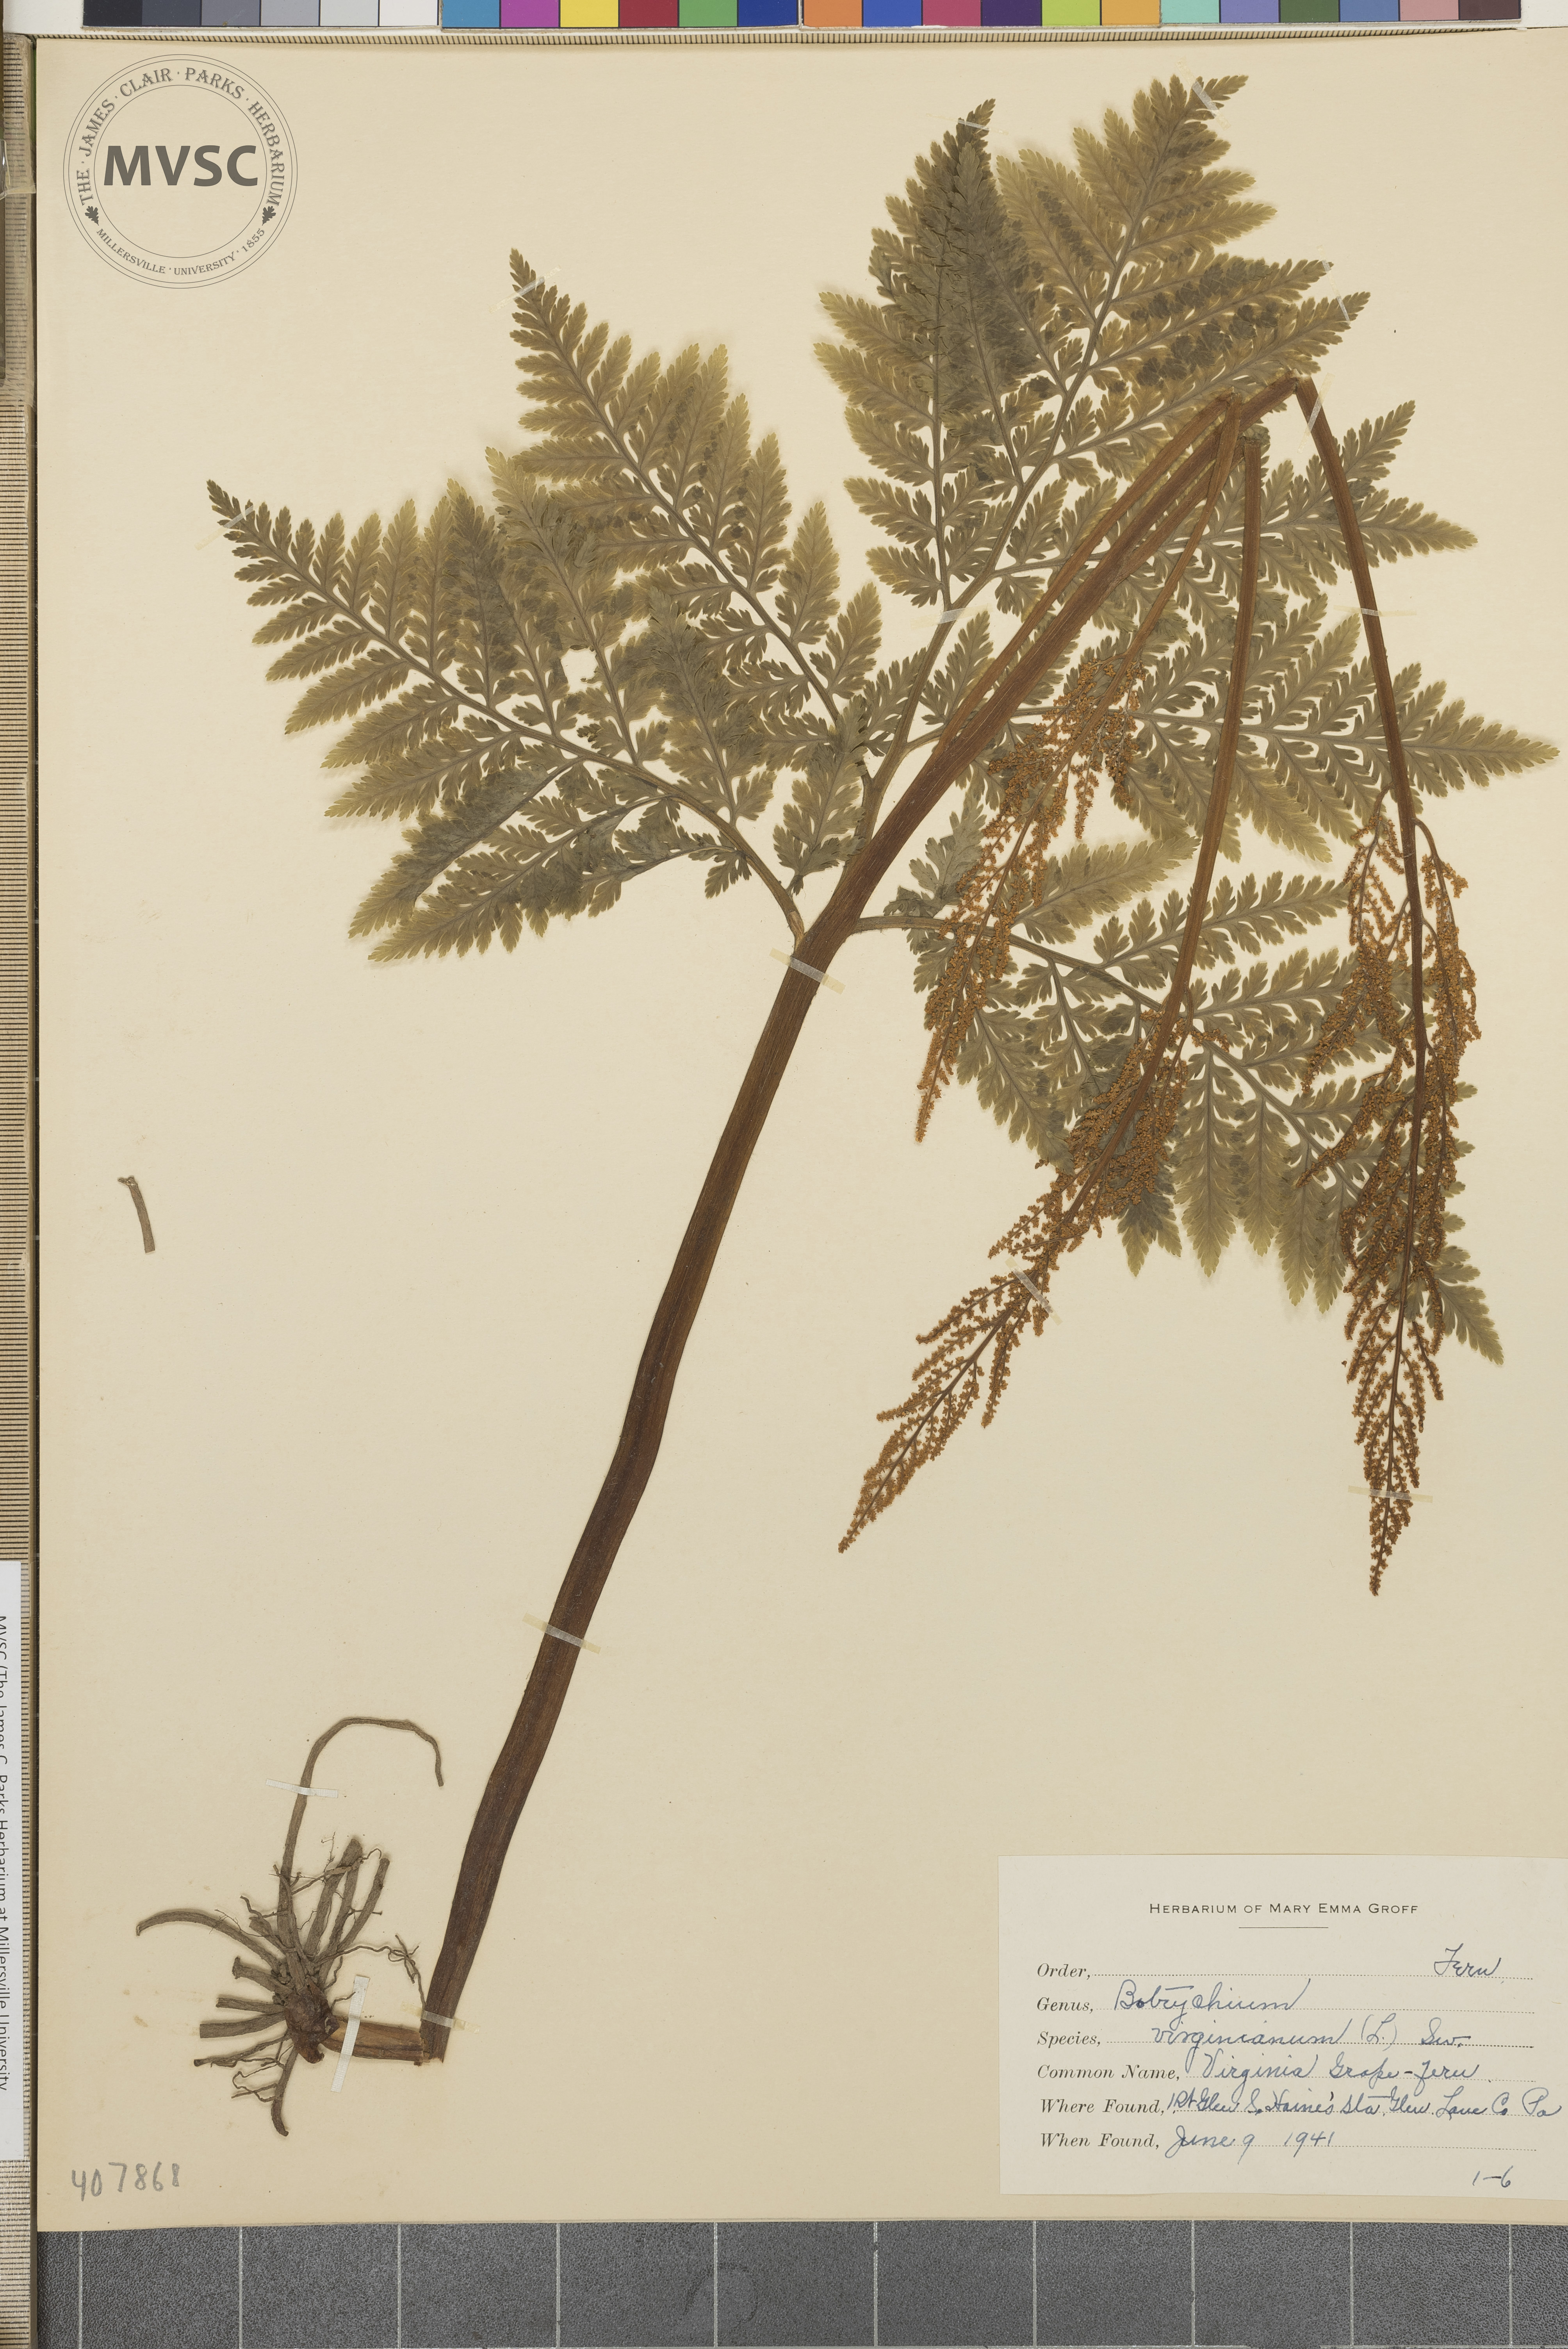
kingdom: Plantae
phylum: Tracheophyta
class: Polypodiopsida
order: Ophioglossales
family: Ophioglossaceae
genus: Botrychium
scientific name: Botrychium virginianum
